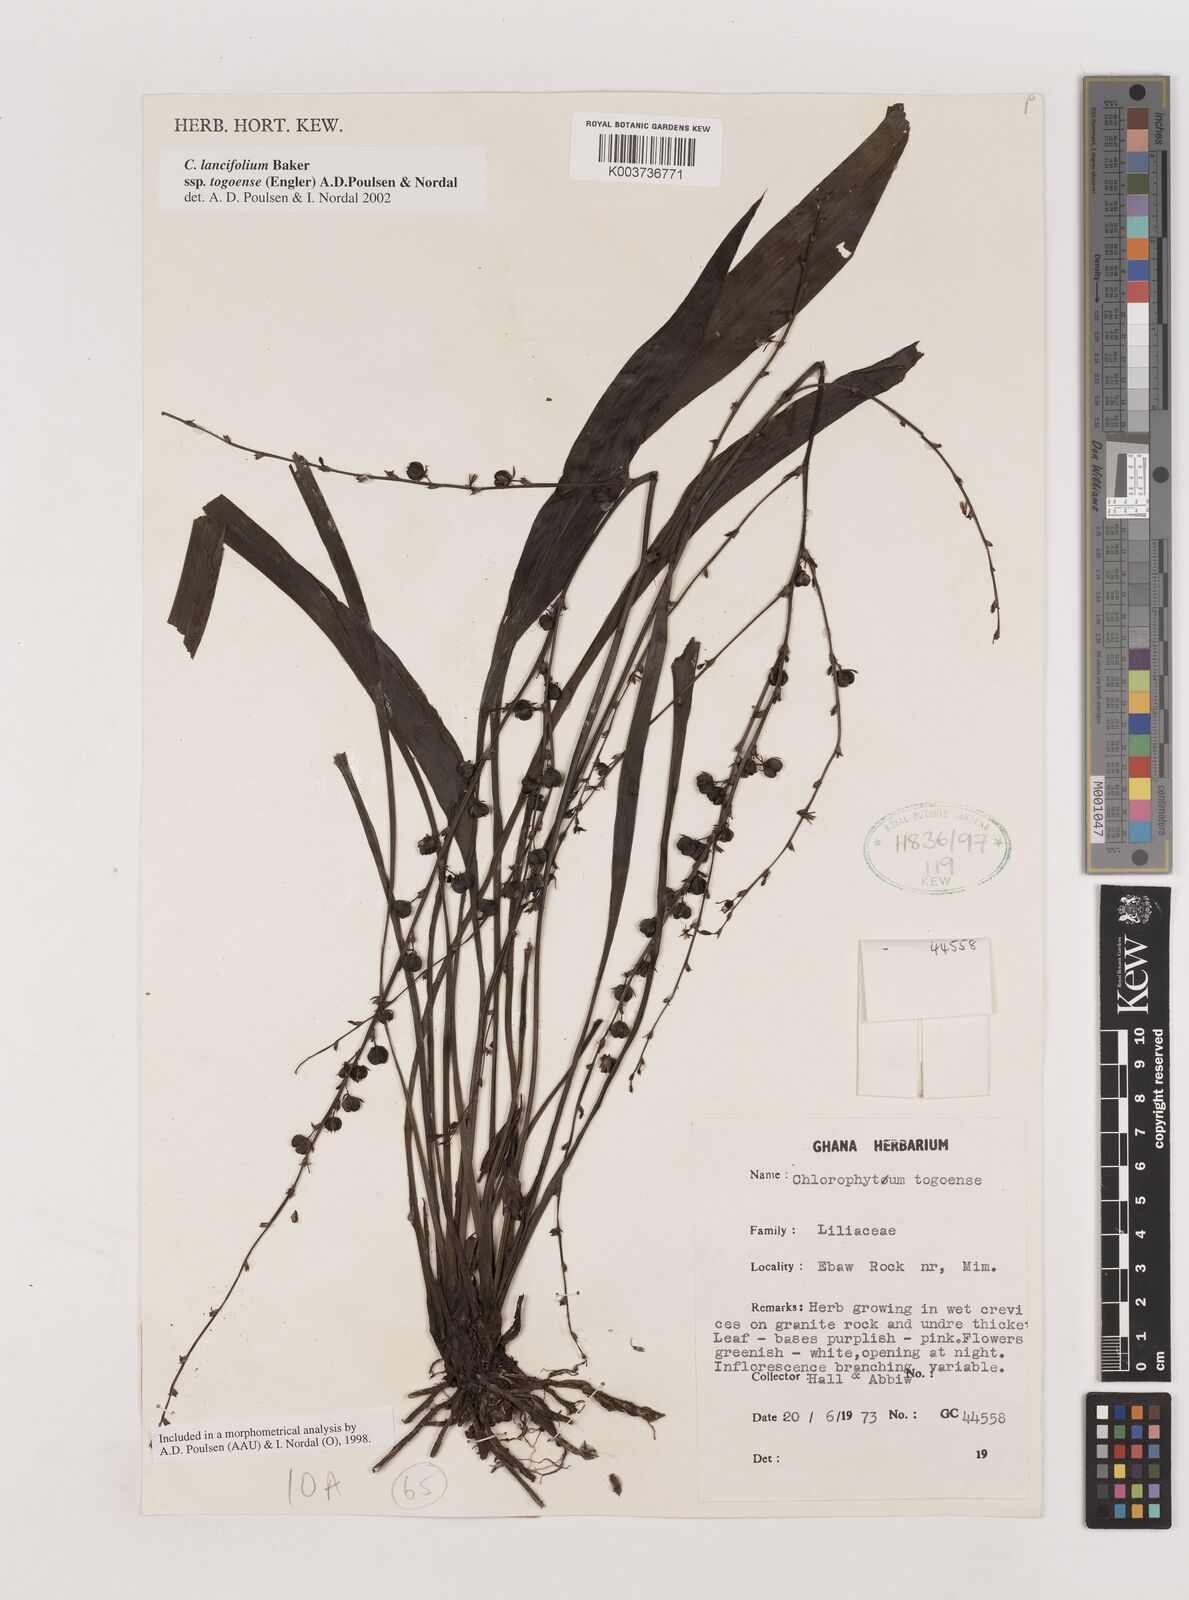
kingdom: Plantae
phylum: Tracheophyta
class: Liliopsida
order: Asparagales
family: Asparagaceae
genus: Chlorophytum
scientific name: Chlorophytum lancifolium
